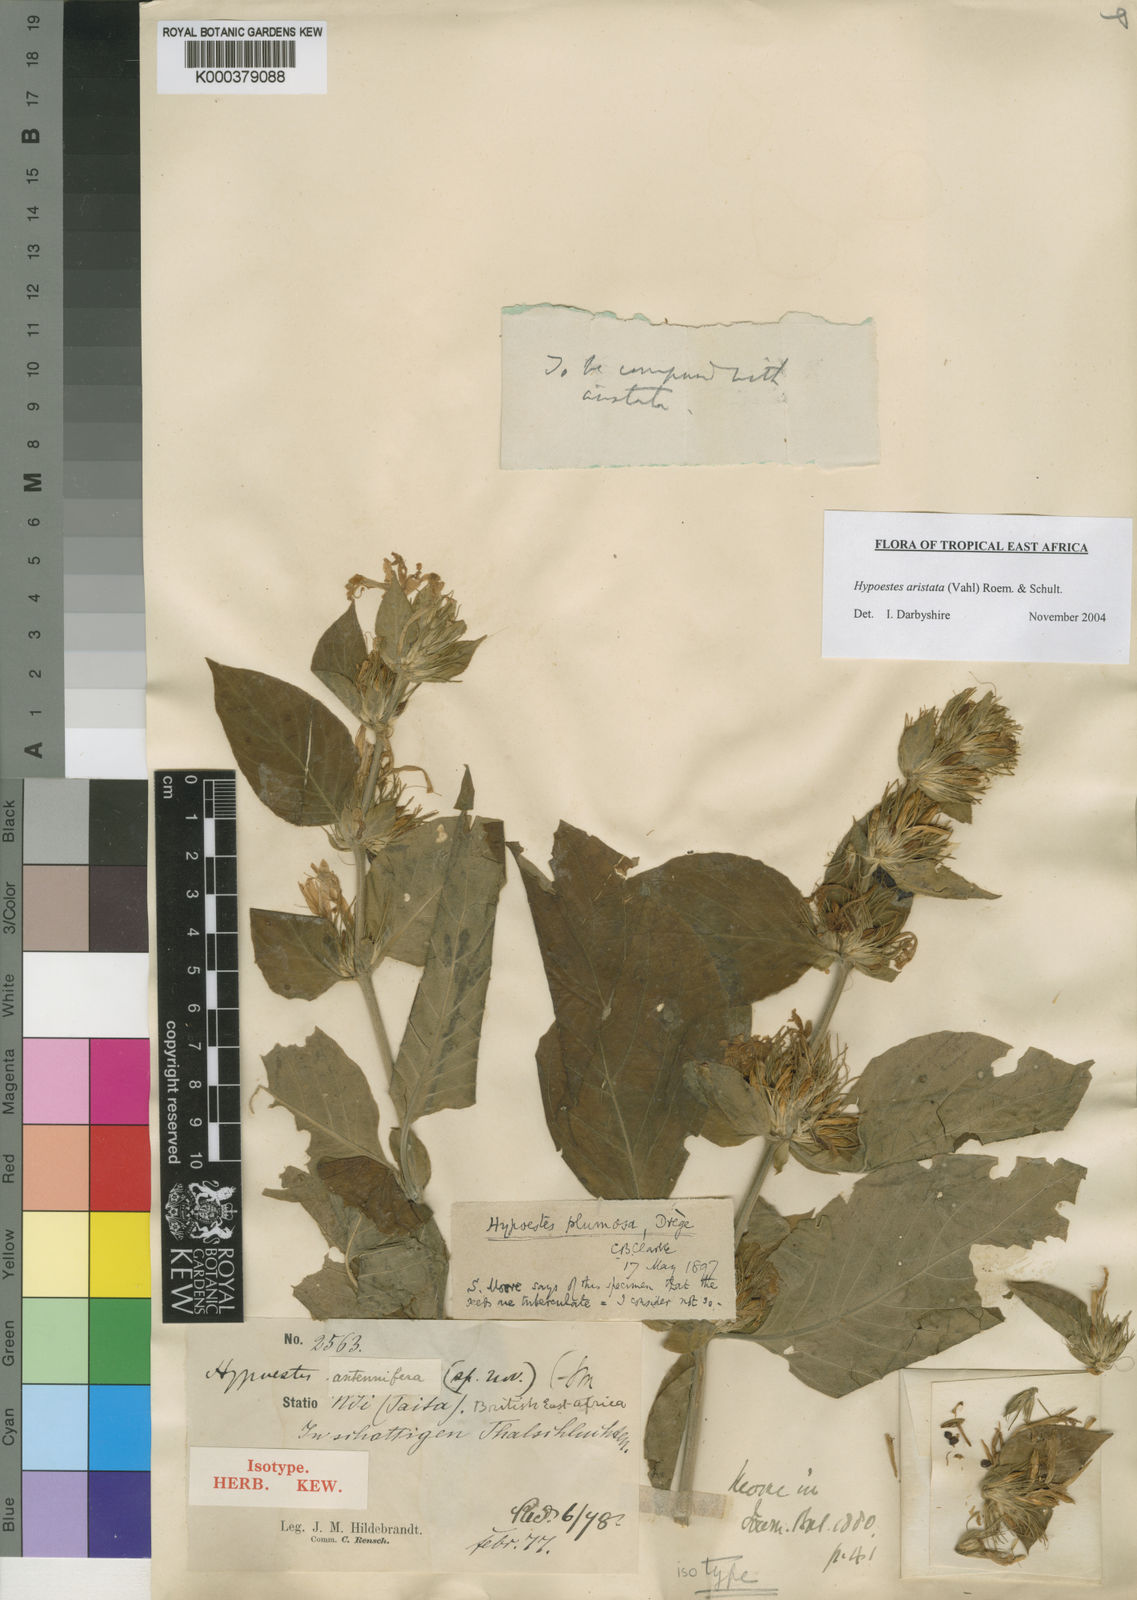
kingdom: Plantae
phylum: Tracheophyta
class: Magnoliopsida
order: Lamiales
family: Acanthaceae
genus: Hypoestes
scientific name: Hypoestes aristata
